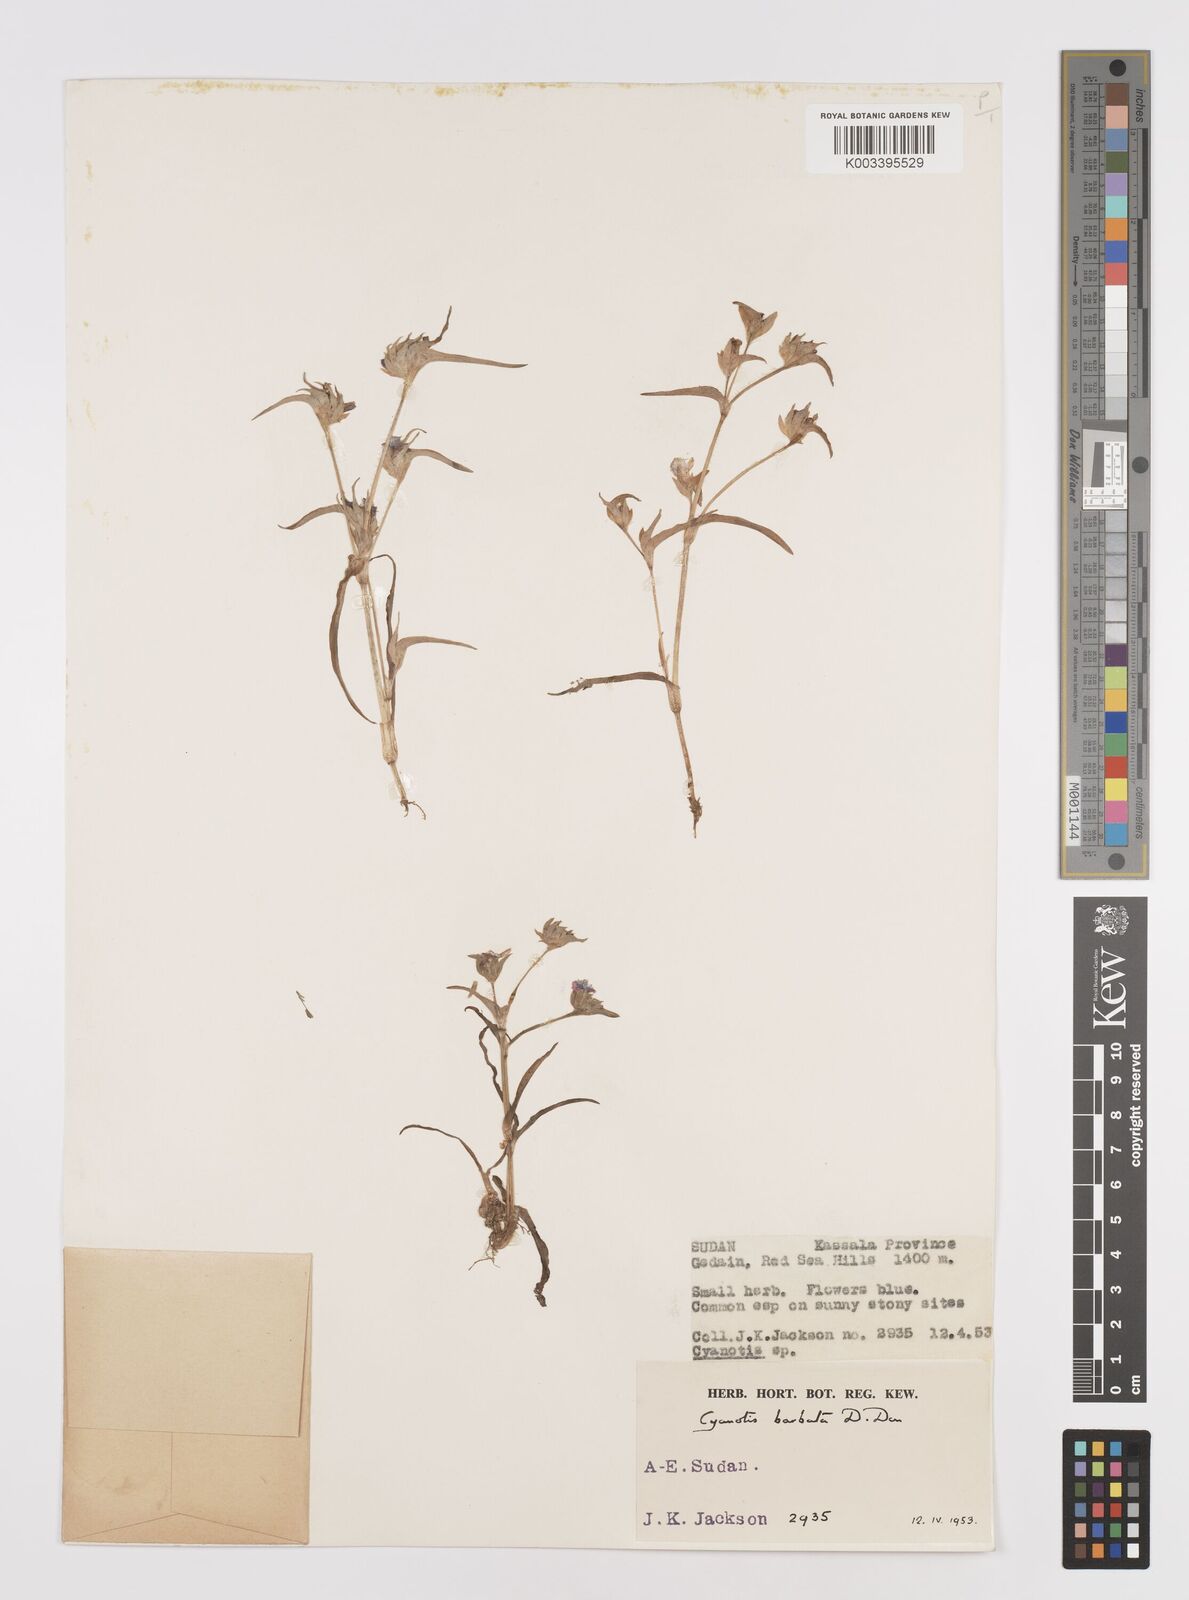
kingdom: Plantae
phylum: Tracheophyta
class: Liliopsida
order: Commelinales
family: Commelinaceae
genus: Cyanotis
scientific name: Cyanotis vaga
